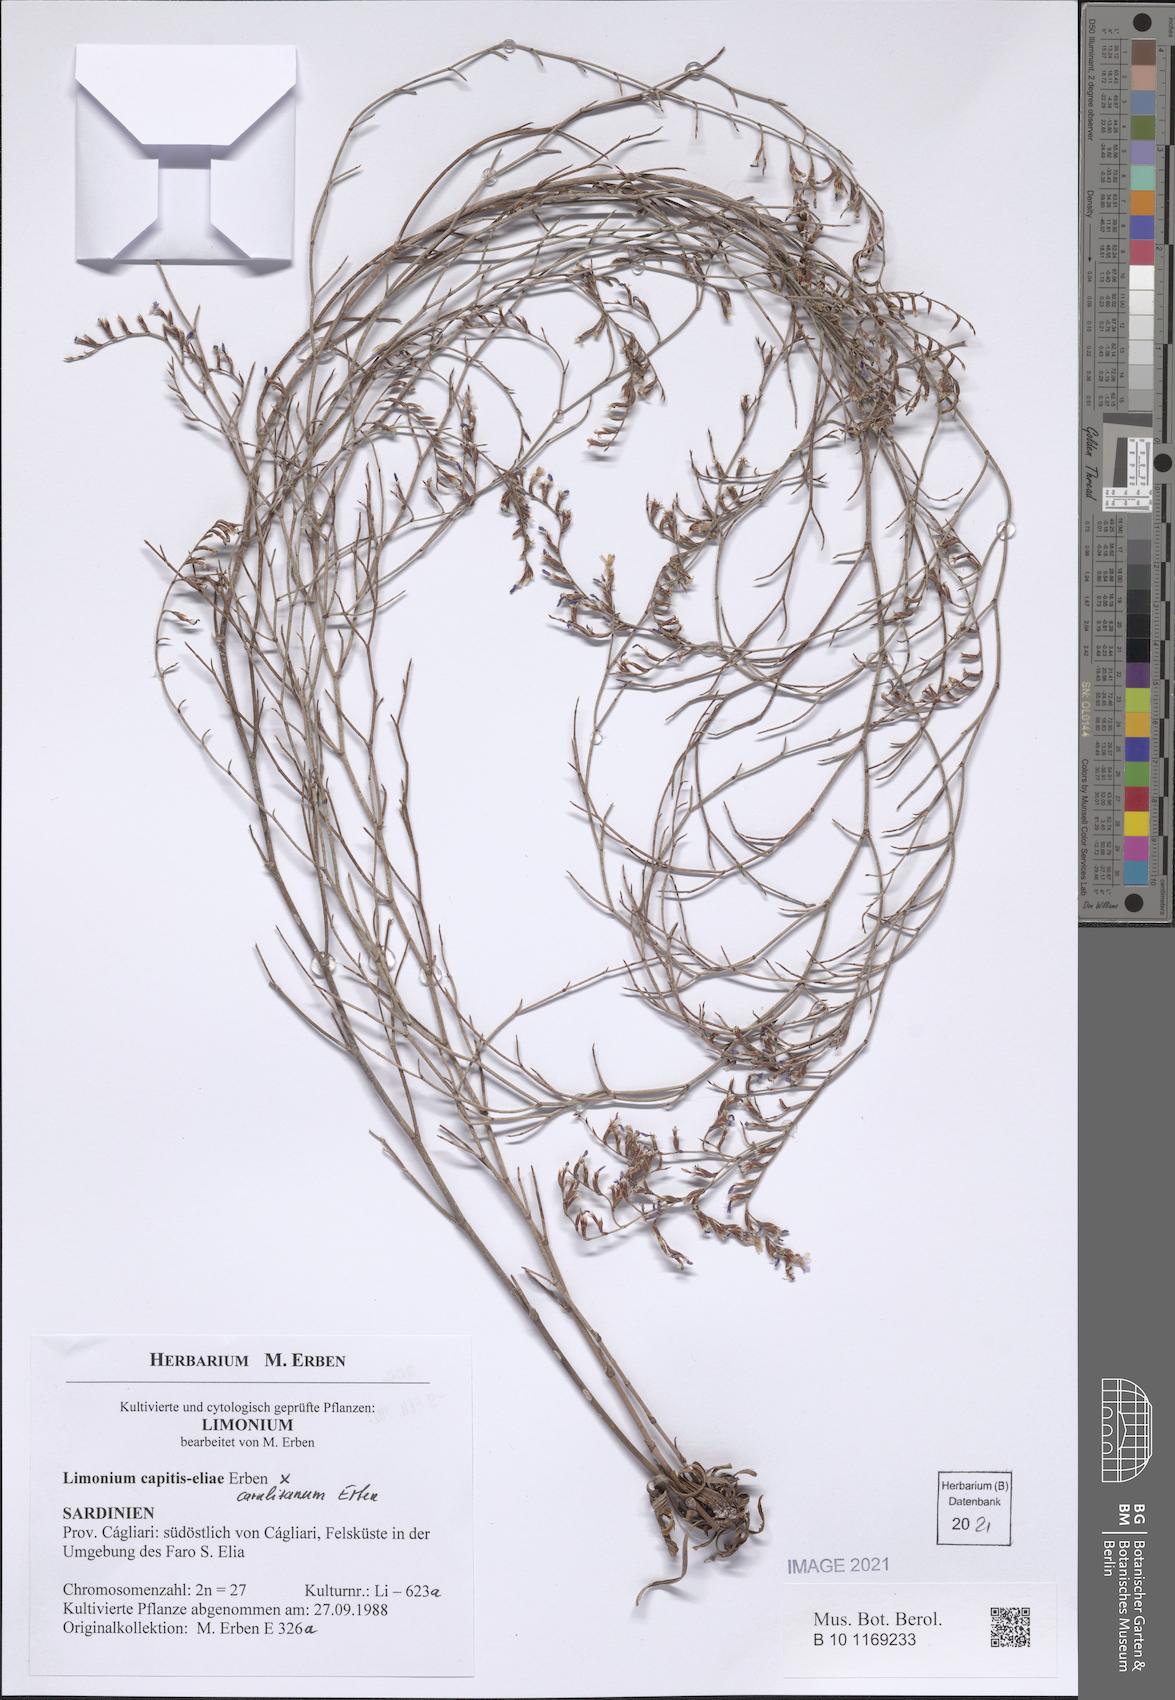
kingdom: Plantae
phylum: Tracheophyta
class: Magnoliopsida
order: Caryophyllales
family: Plumbaginaceae
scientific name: Plumbaginaceae
